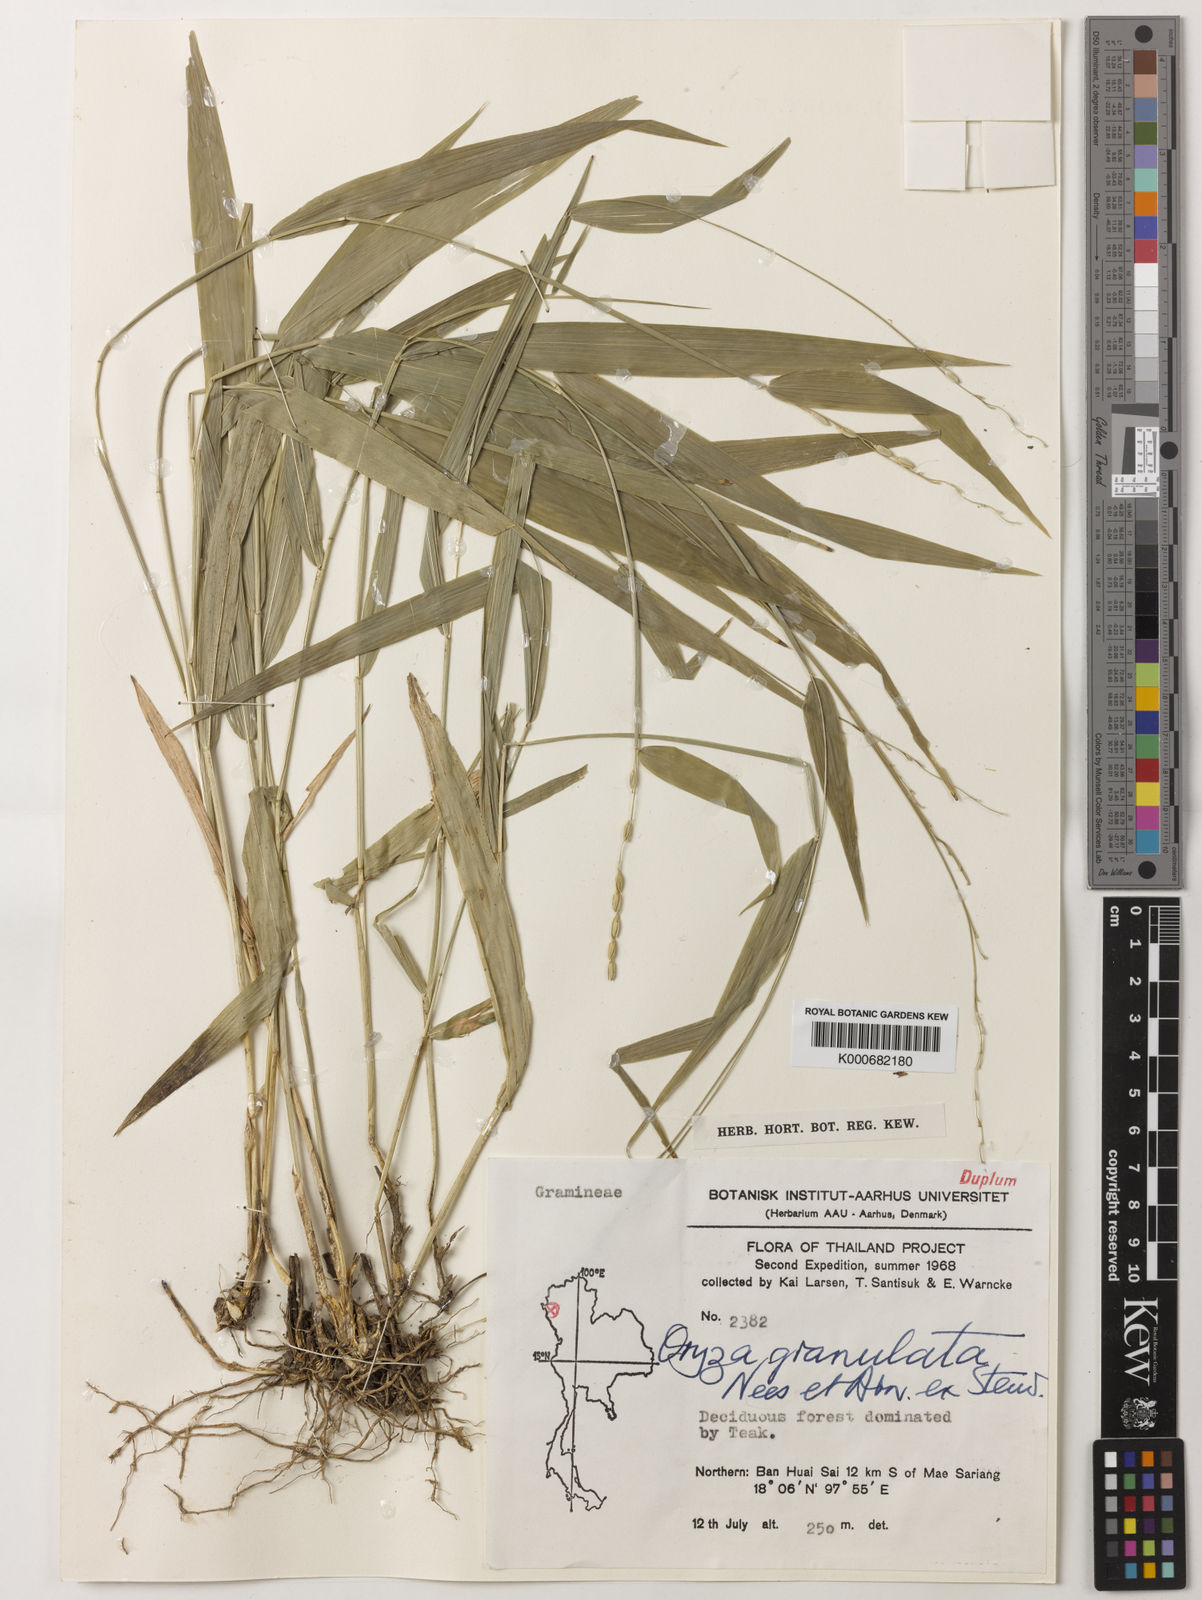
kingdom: Plantae
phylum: Tracheophyta
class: Liliopsida
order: Poales
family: Poaceae
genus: Oryza
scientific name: Oryza meyeriana
